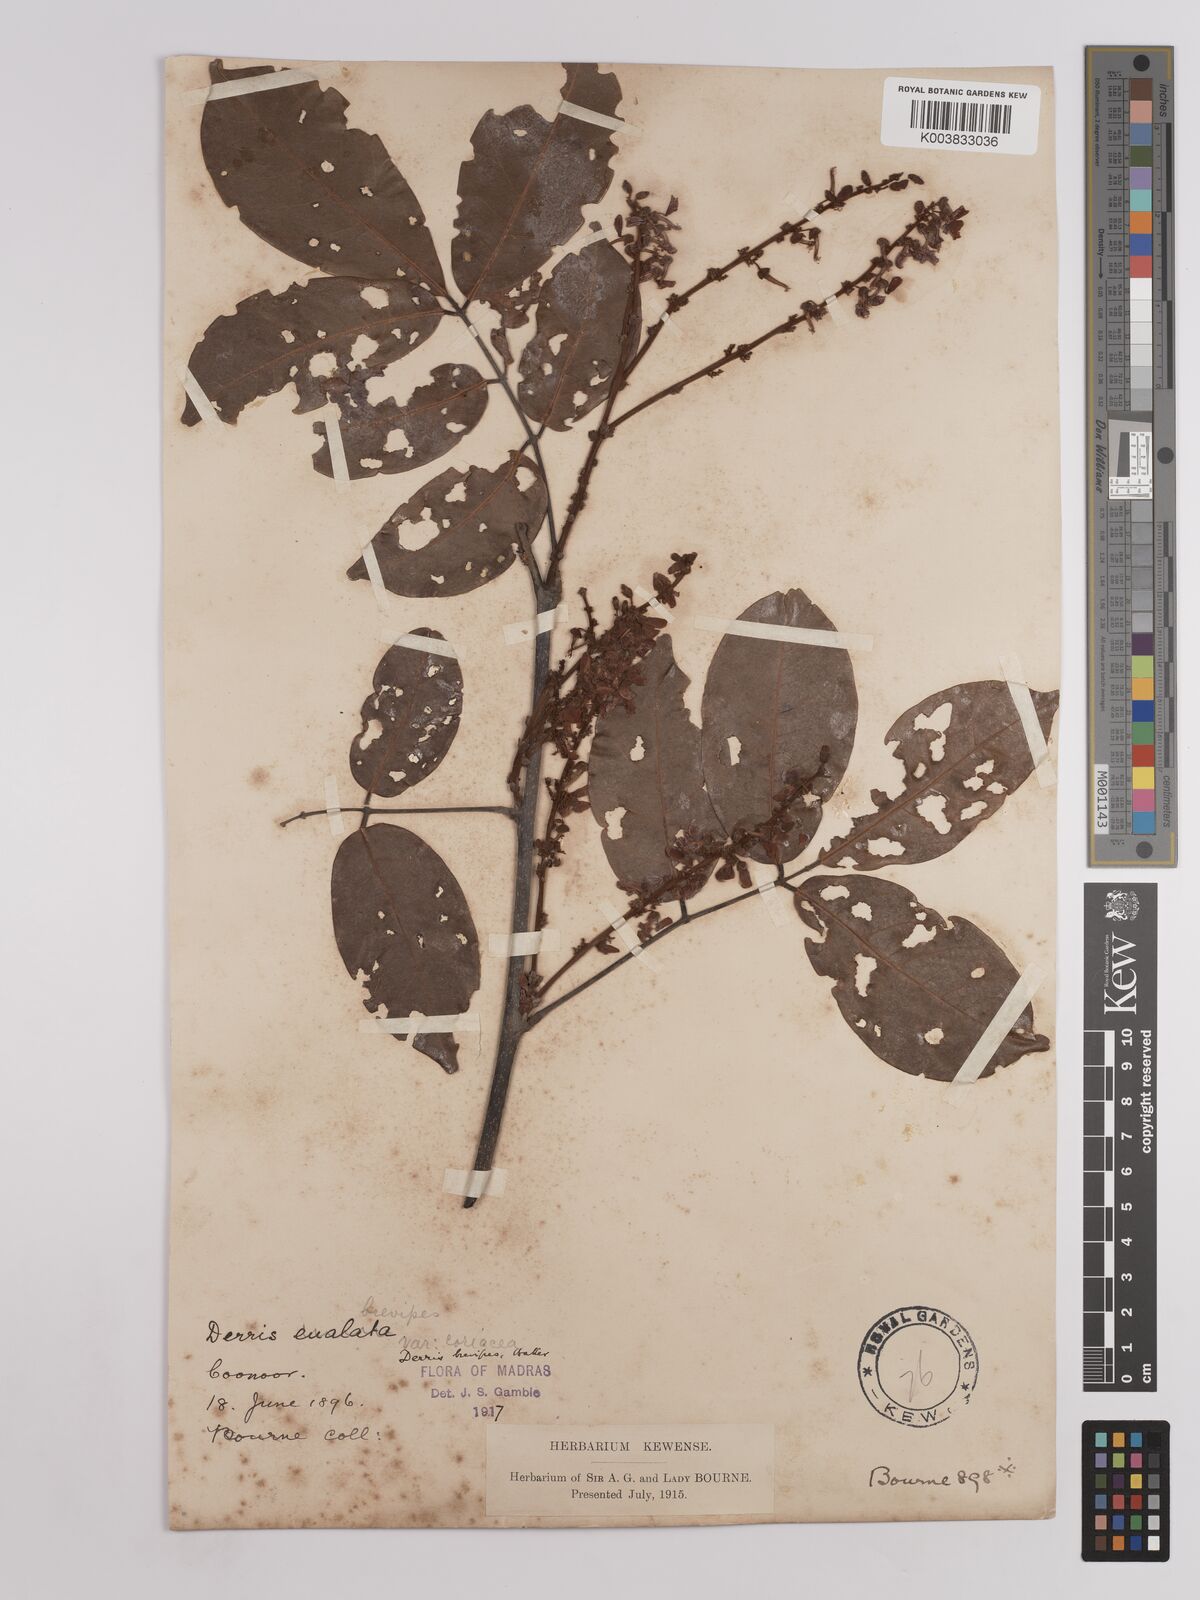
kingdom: Plantae
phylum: Tracheophyta
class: Magnoliopsida
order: Fabales
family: Fabaceae
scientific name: Fabaceae
